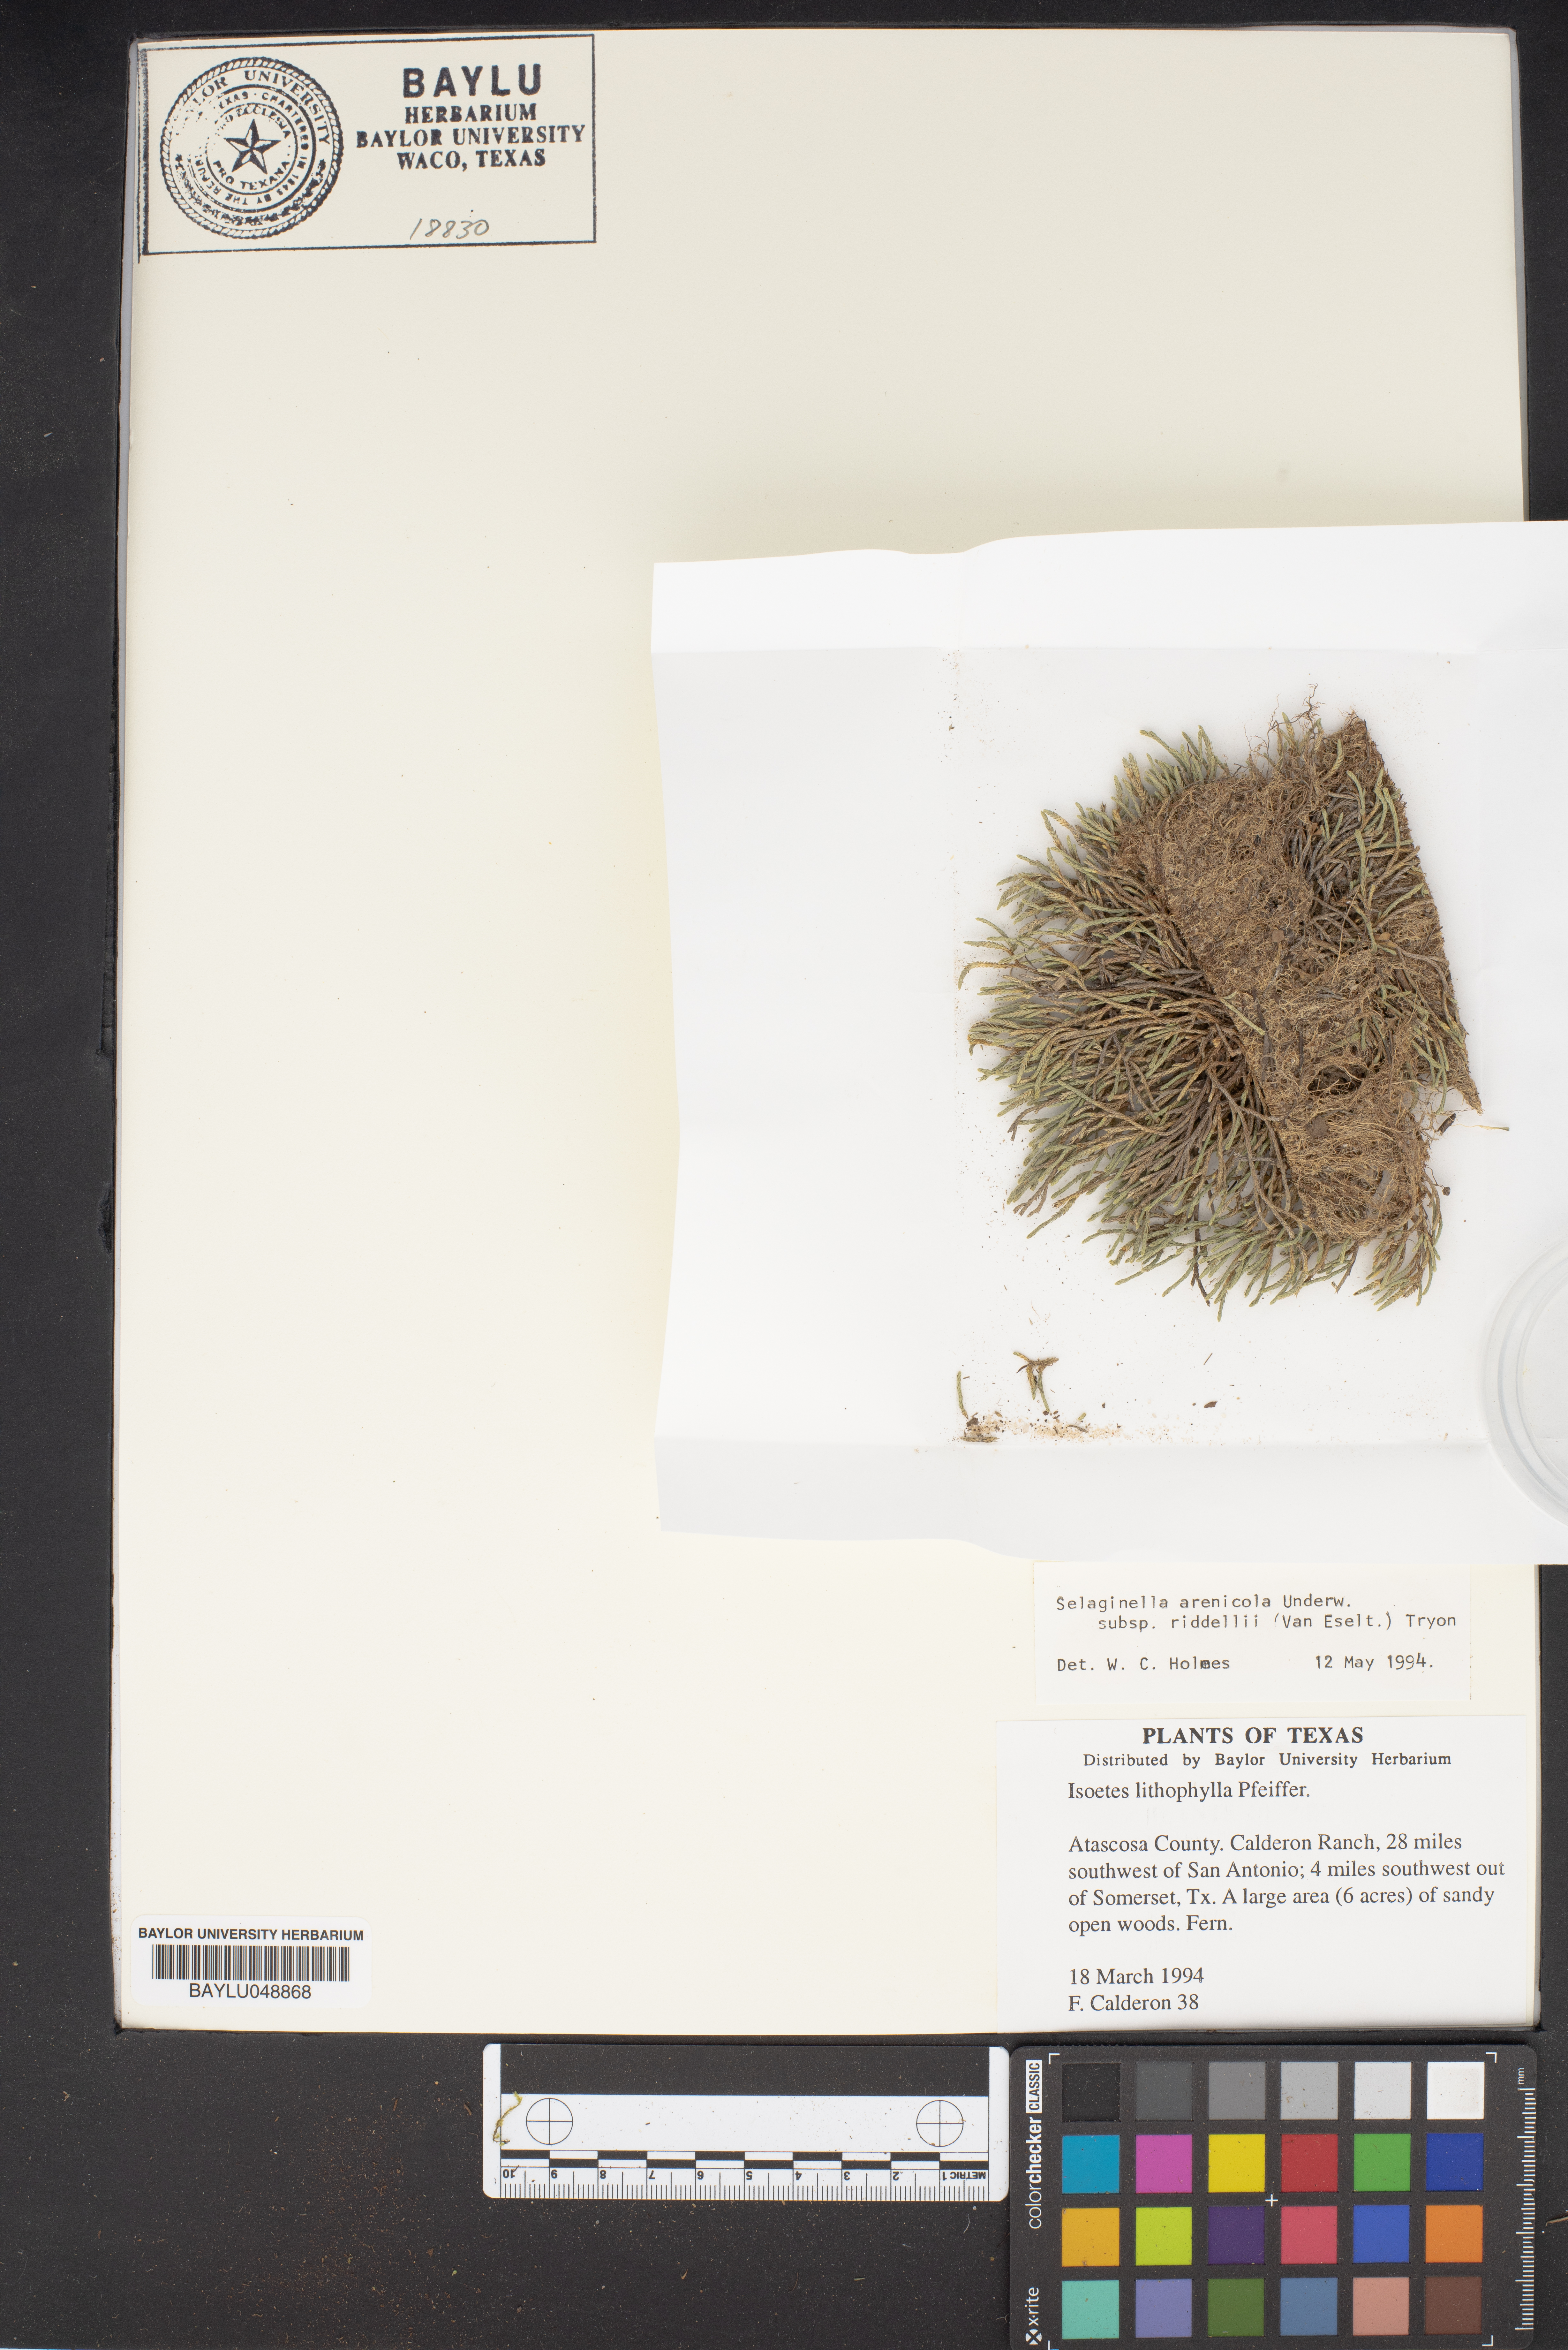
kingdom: Plantae
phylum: Tracheophyta
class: Lycopodiopsida
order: Isoetales
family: Isoetaceae
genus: Isoetes
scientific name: Isoetes lithophila
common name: Rock quillwort
